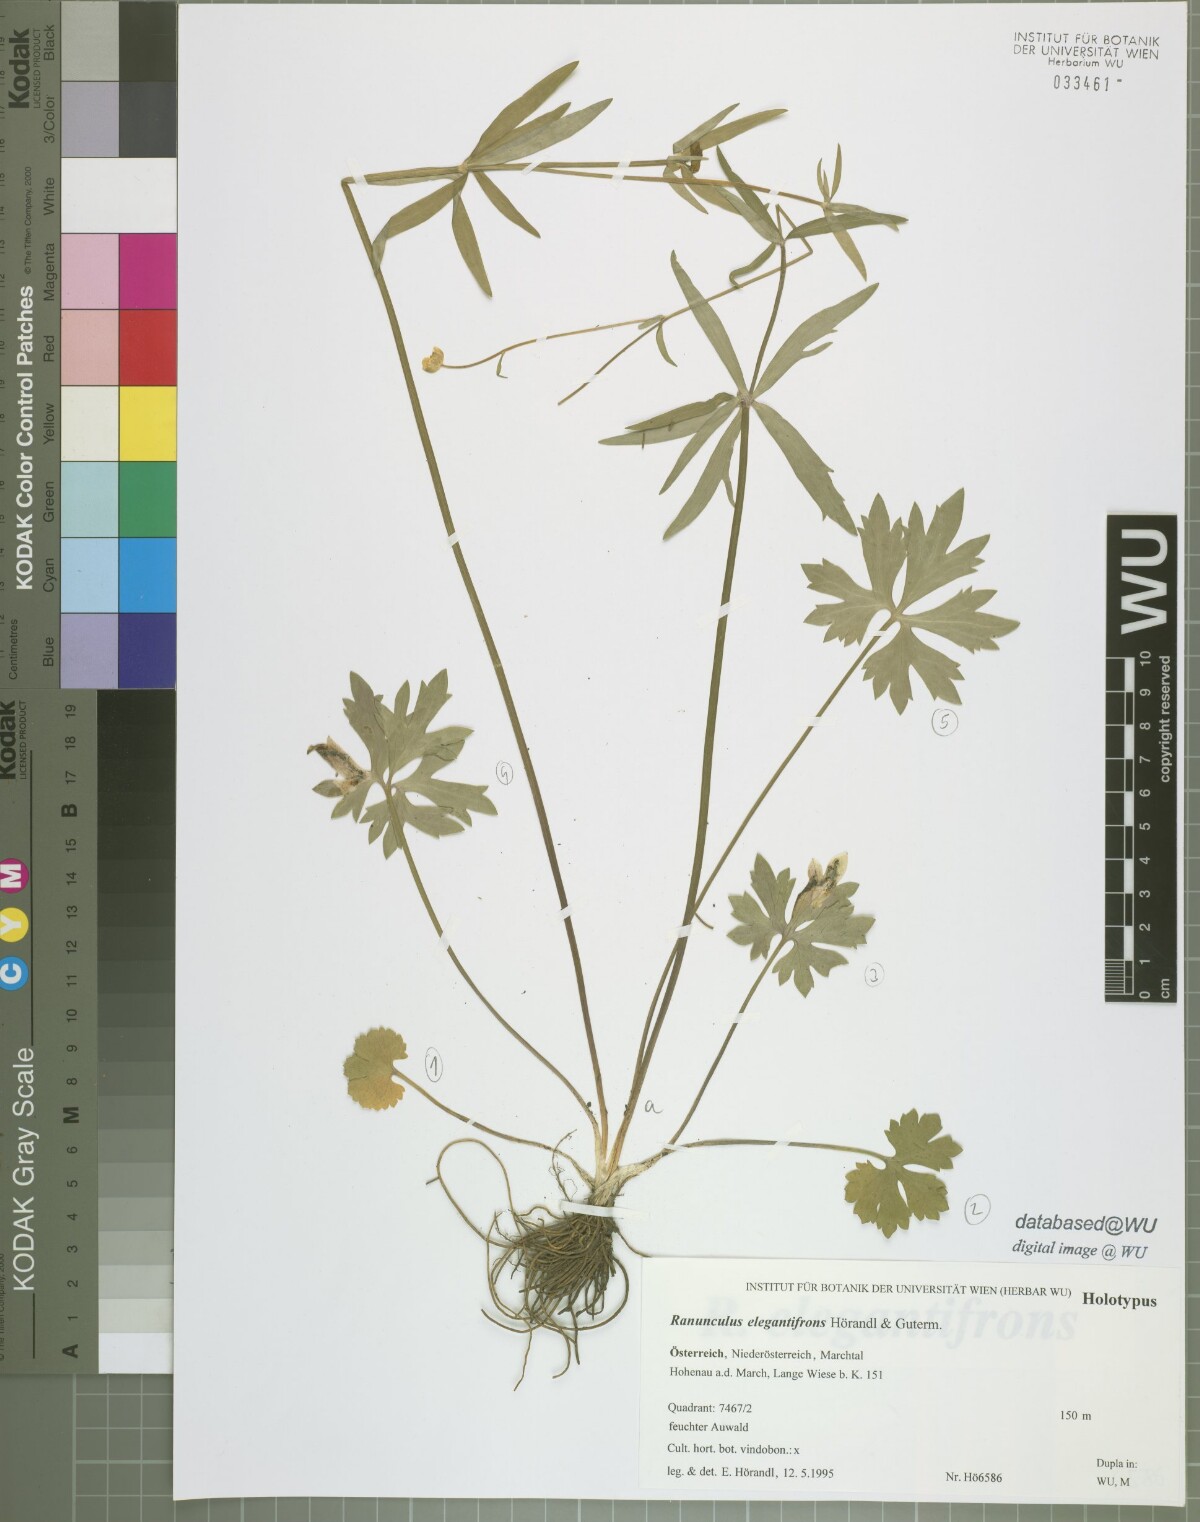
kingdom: Plantae
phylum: Tracheophyta
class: Magnoliopsida
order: Ranunculales
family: Ranunculaceae
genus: Ranunculus
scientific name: Ranunculus elegantifrons
